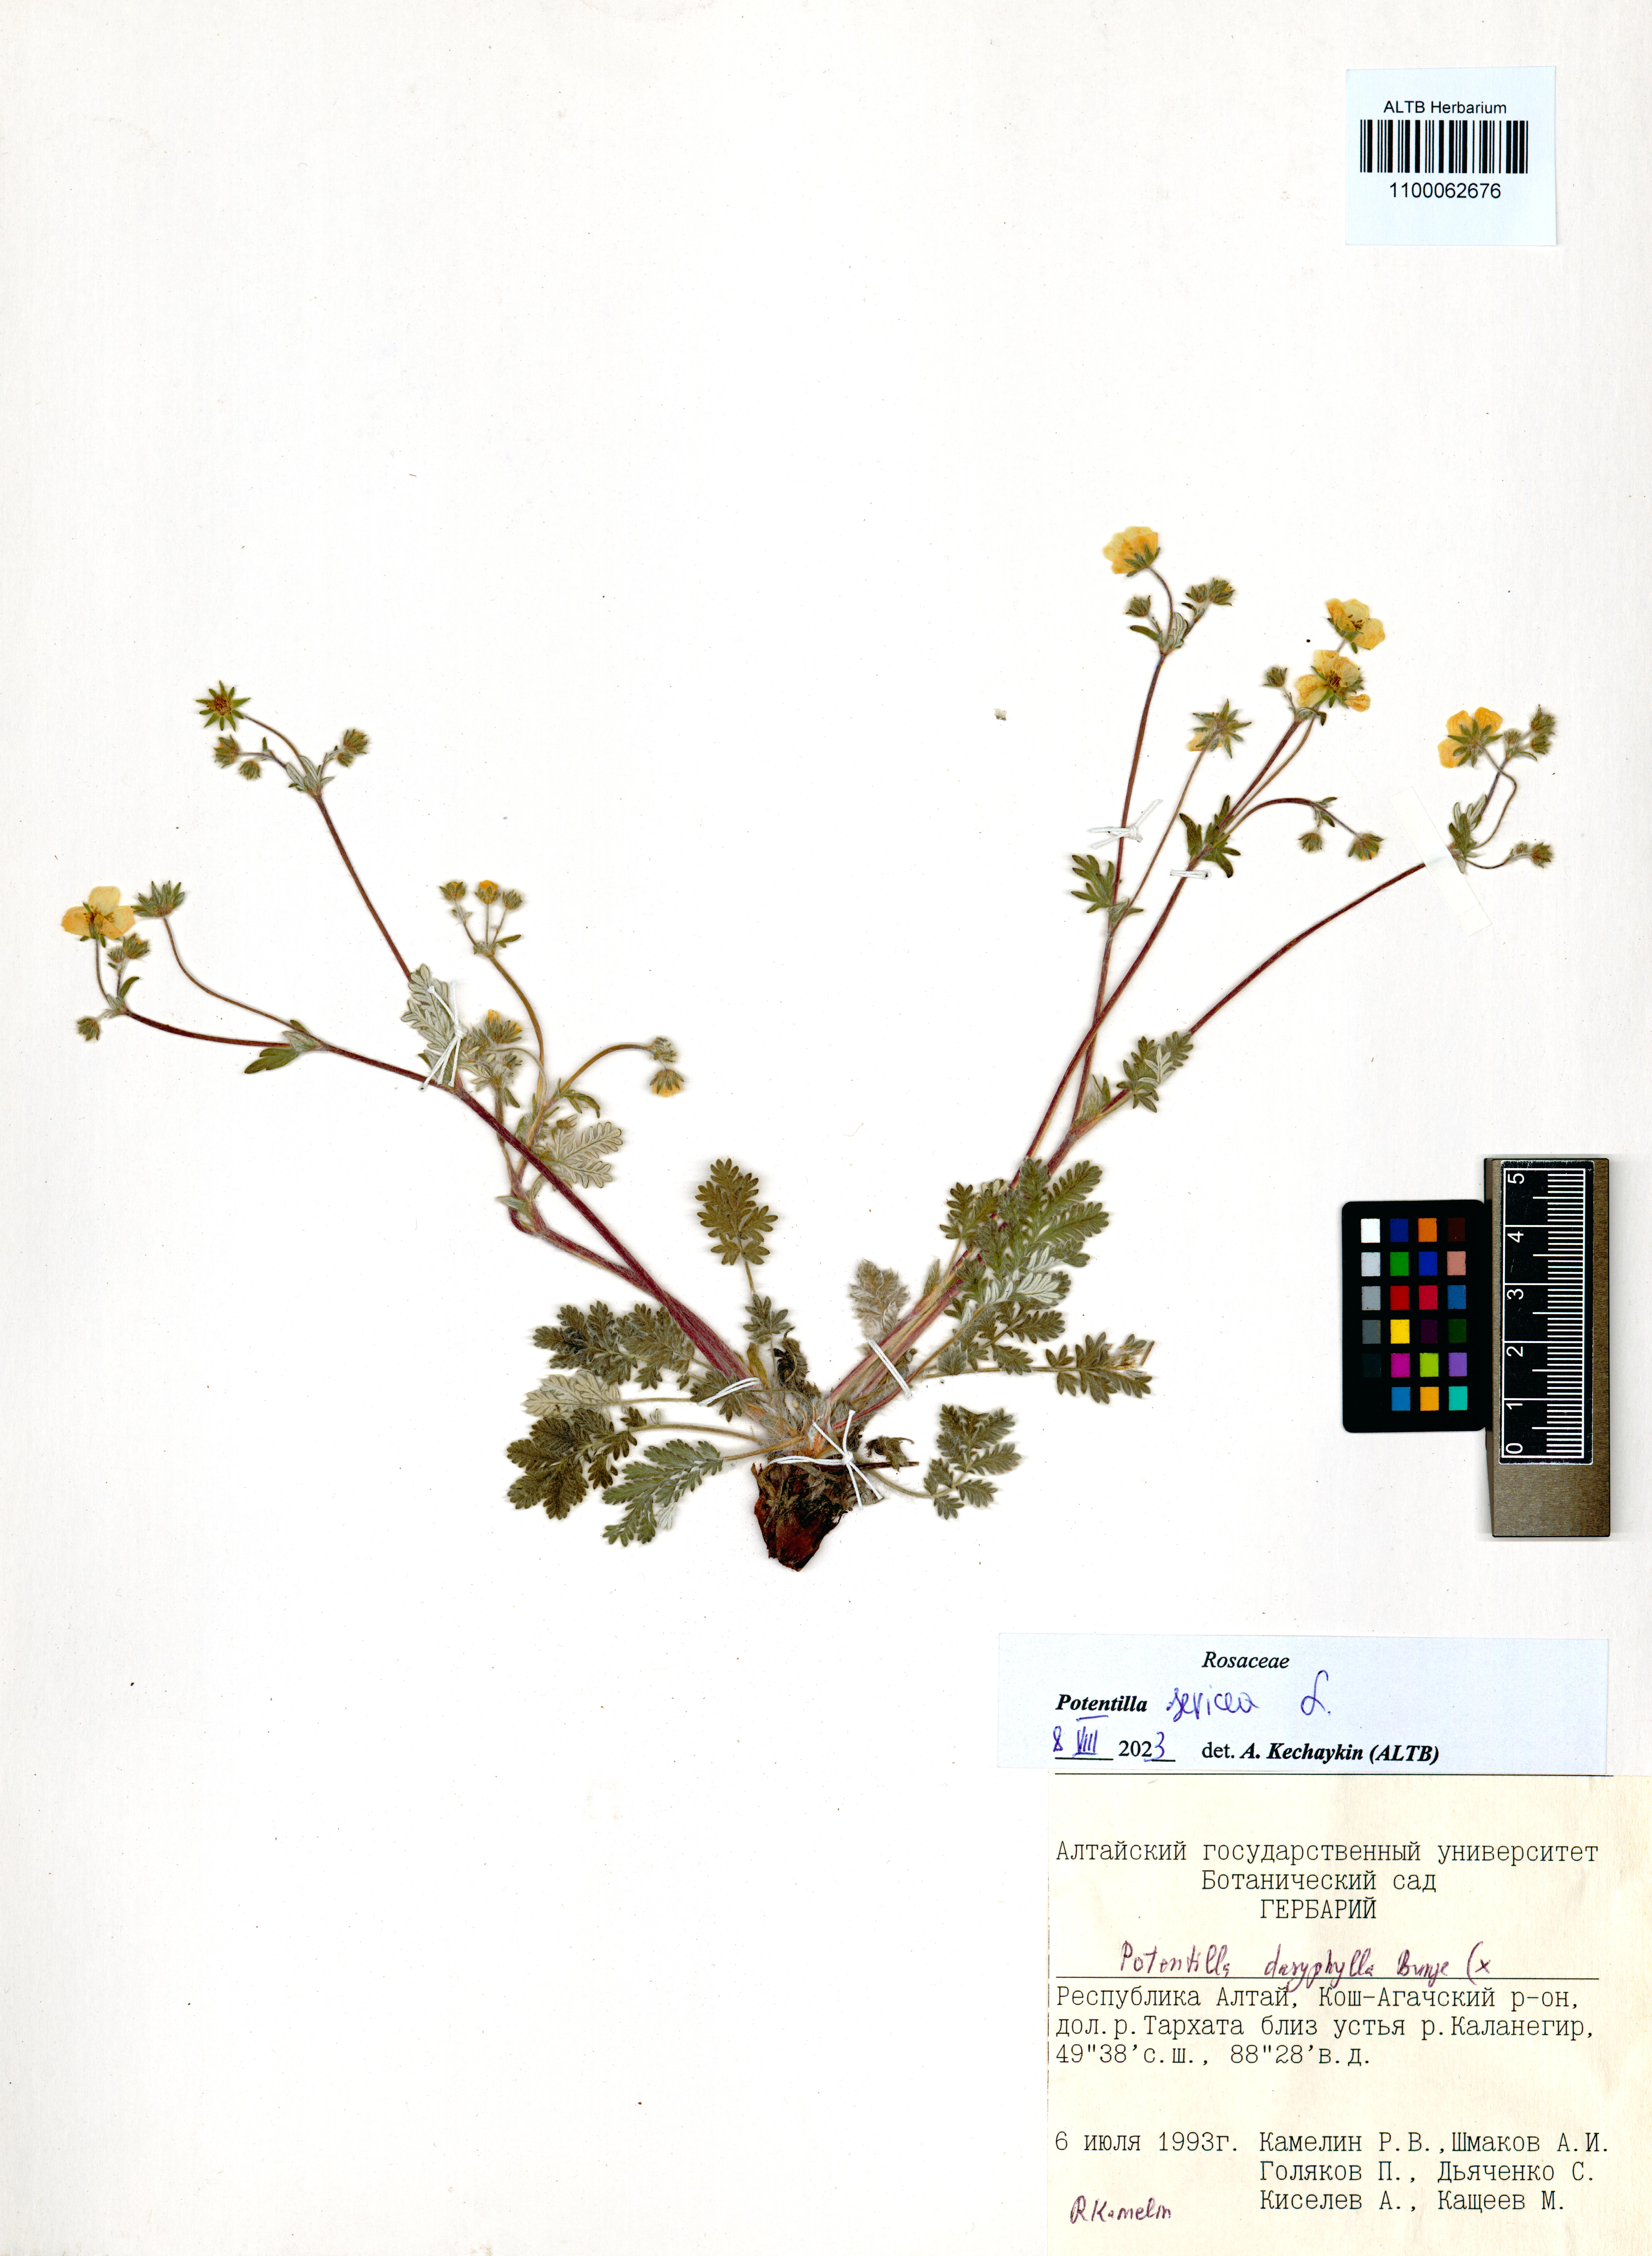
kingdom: Plantae
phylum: Tracheophyta
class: Magnoliopsida
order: Rosales
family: Rosaceae
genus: Potentilla
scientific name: Potentilla sericea
